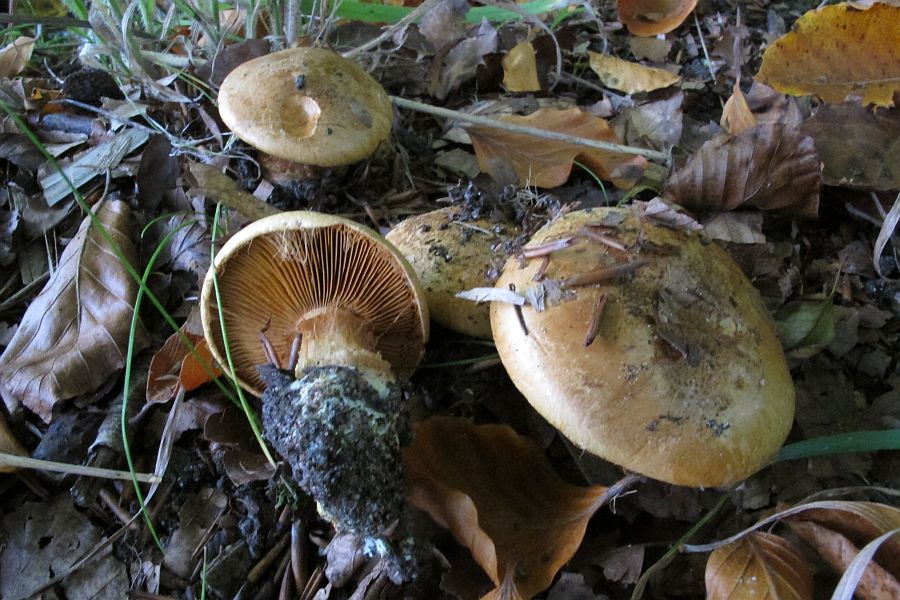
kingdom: Fungi
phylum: Basidiomycota
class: Agaricomycetes
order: Agaricales
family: Cortinariaceae
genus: Calonarius
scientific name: Calonarius alcalinophilus
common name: gyldenbrun slørhat
